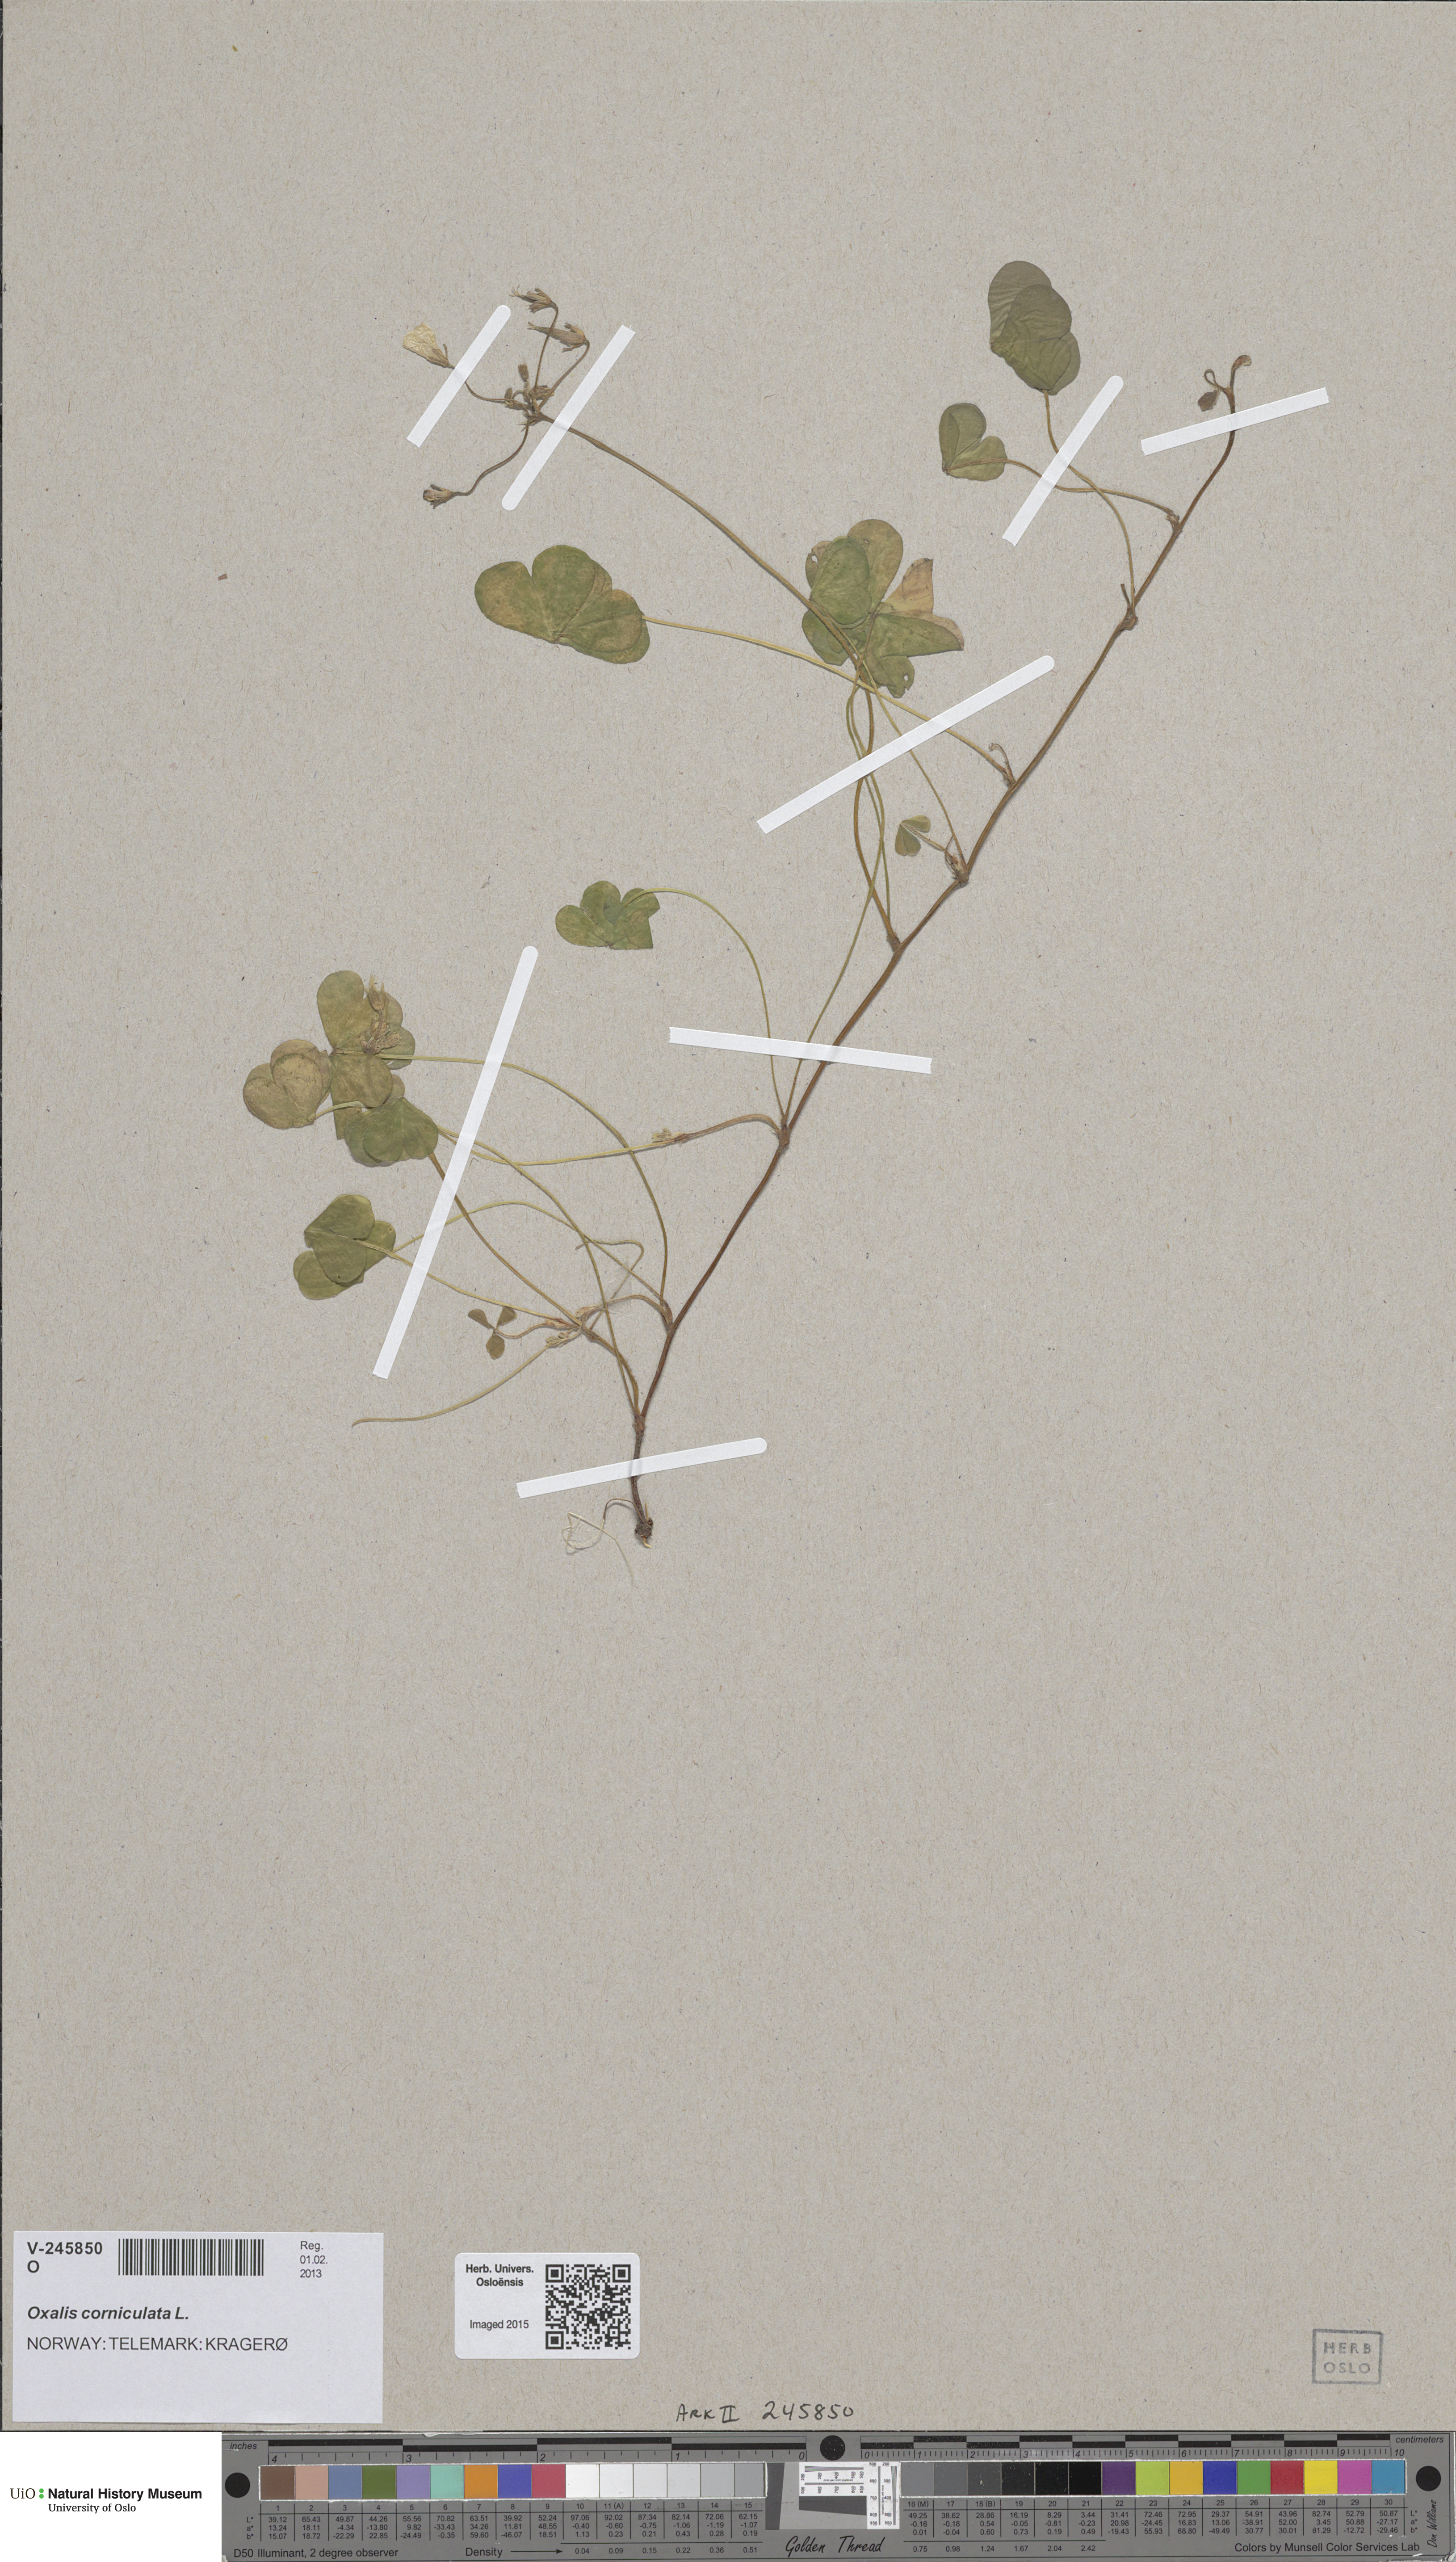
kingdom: Plantae
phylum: Tracheophyta
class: Magnoliopsida
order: Oxalidales
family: Oxalidaceae
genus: Oxalis
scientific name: Oxalis corniculata
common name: Procumbent yellow-sorrel
